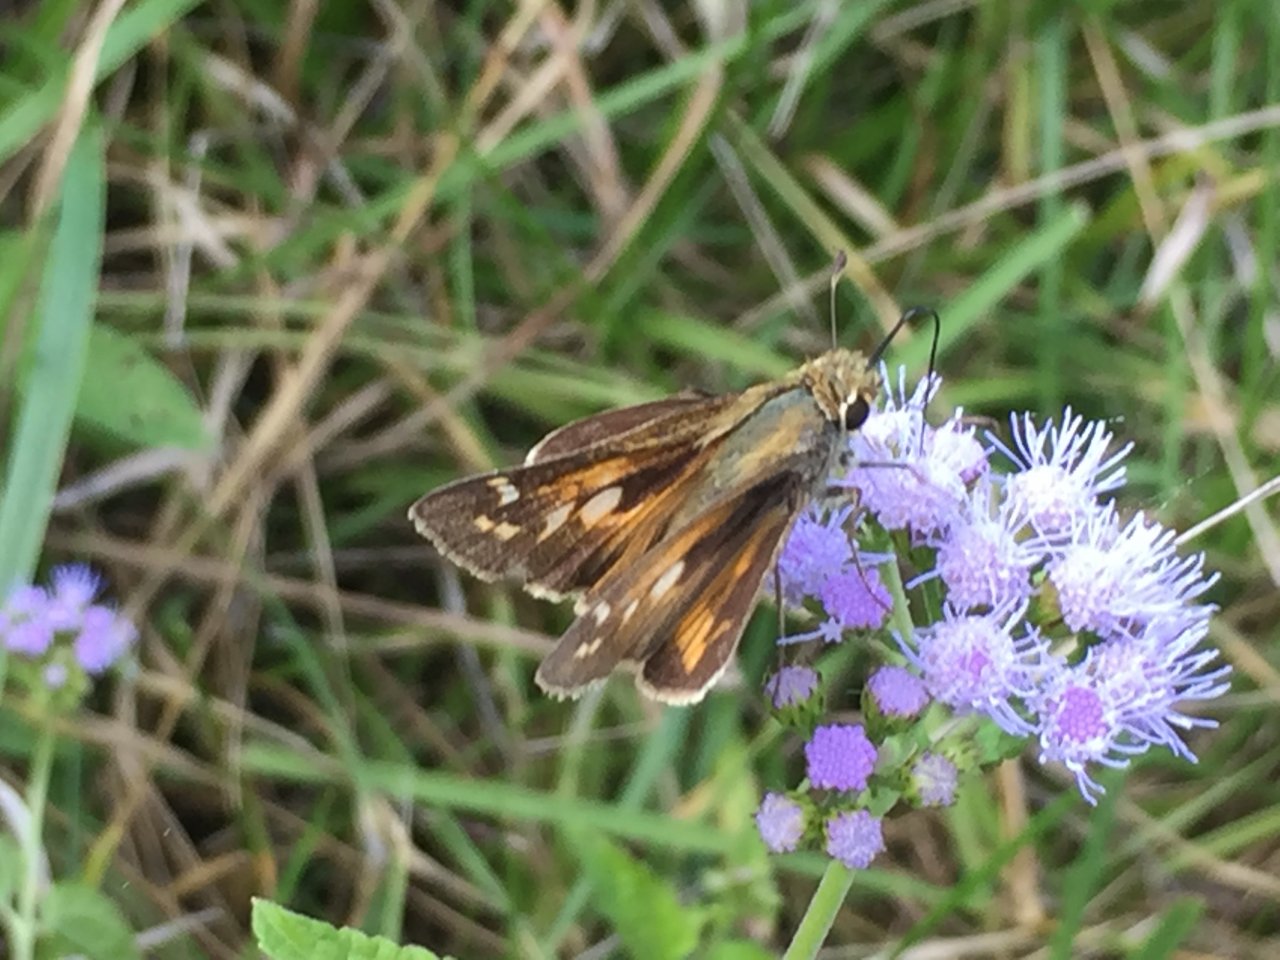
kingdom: Animalia
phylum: Arthropoda
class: Insecta
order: Lepidoptera
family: Hesperiidae
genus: Atalopedes
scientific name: Atalopedes campestris
